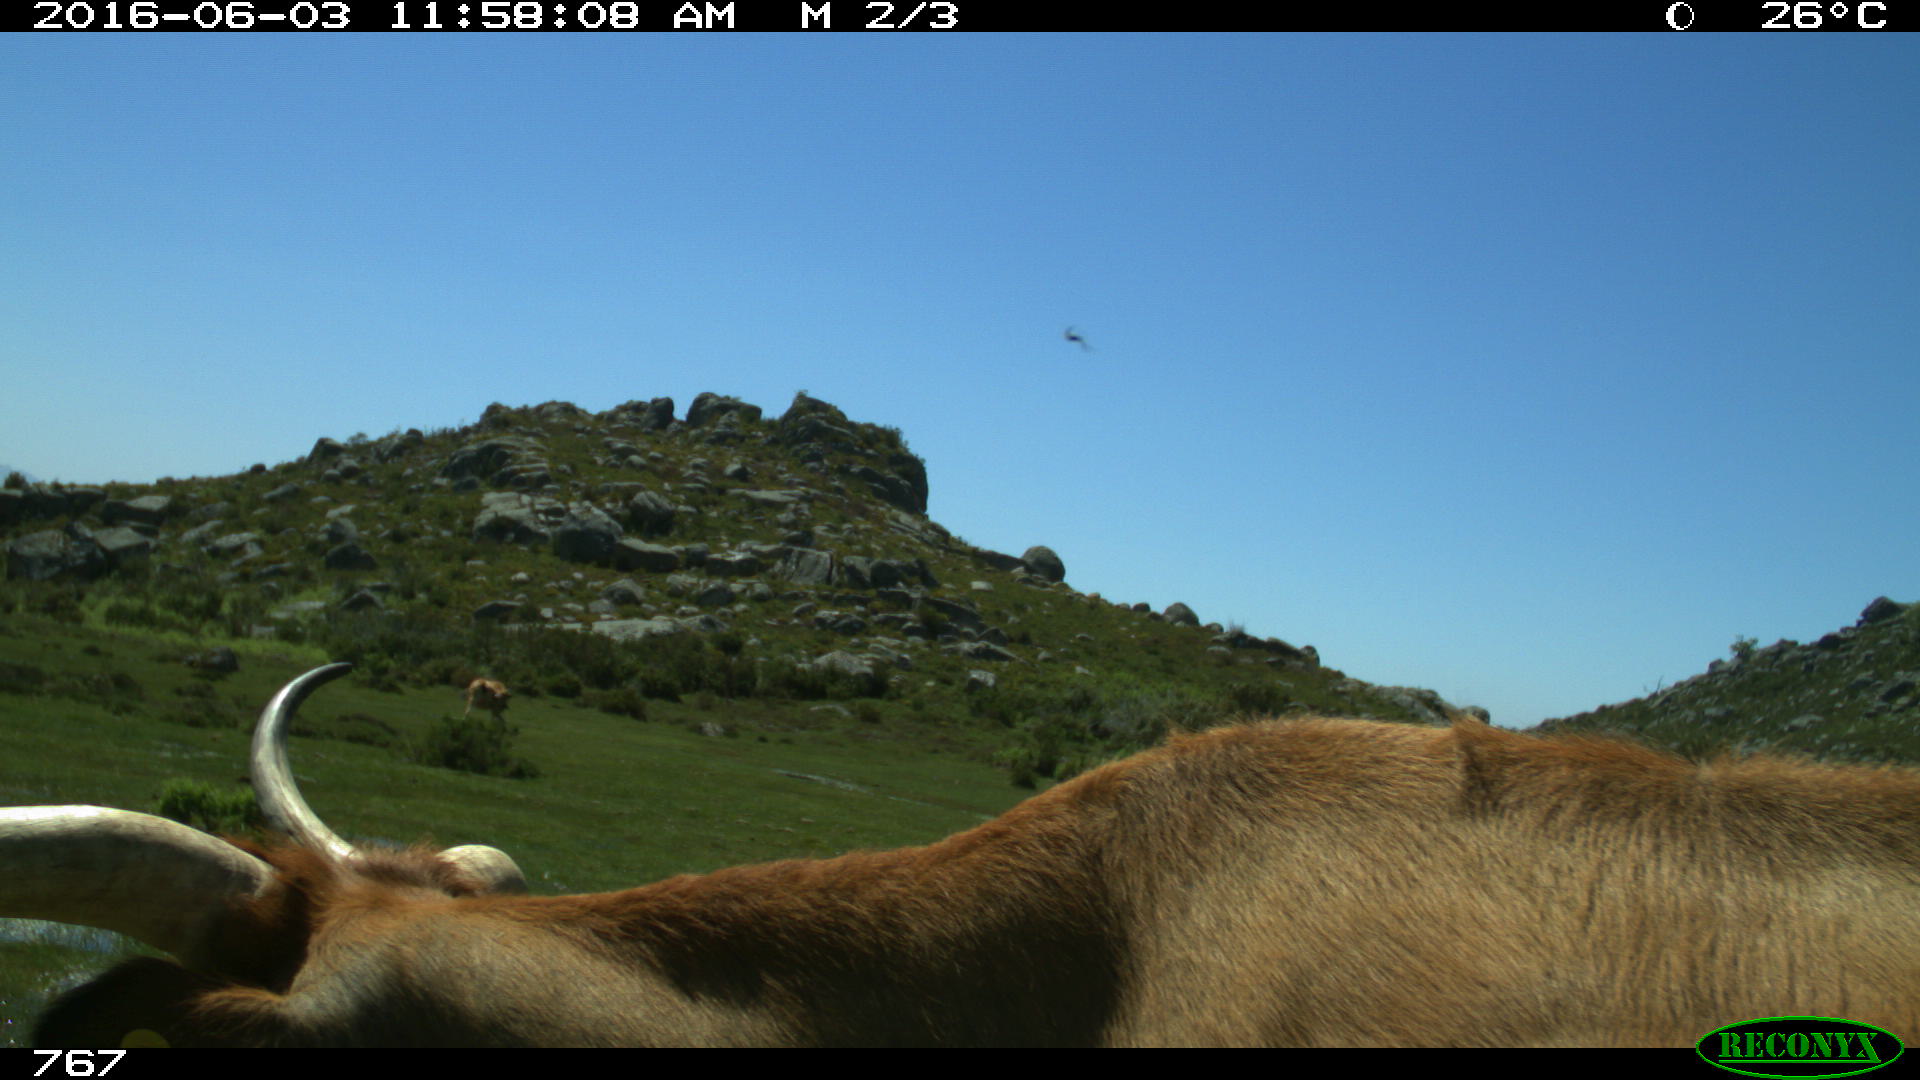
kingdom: Animalia
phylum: Chordata
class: Mammalia
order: Artiodactyla
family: Bovidae
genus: Bos
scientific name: Bos taurus
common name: Domesticated cattle
